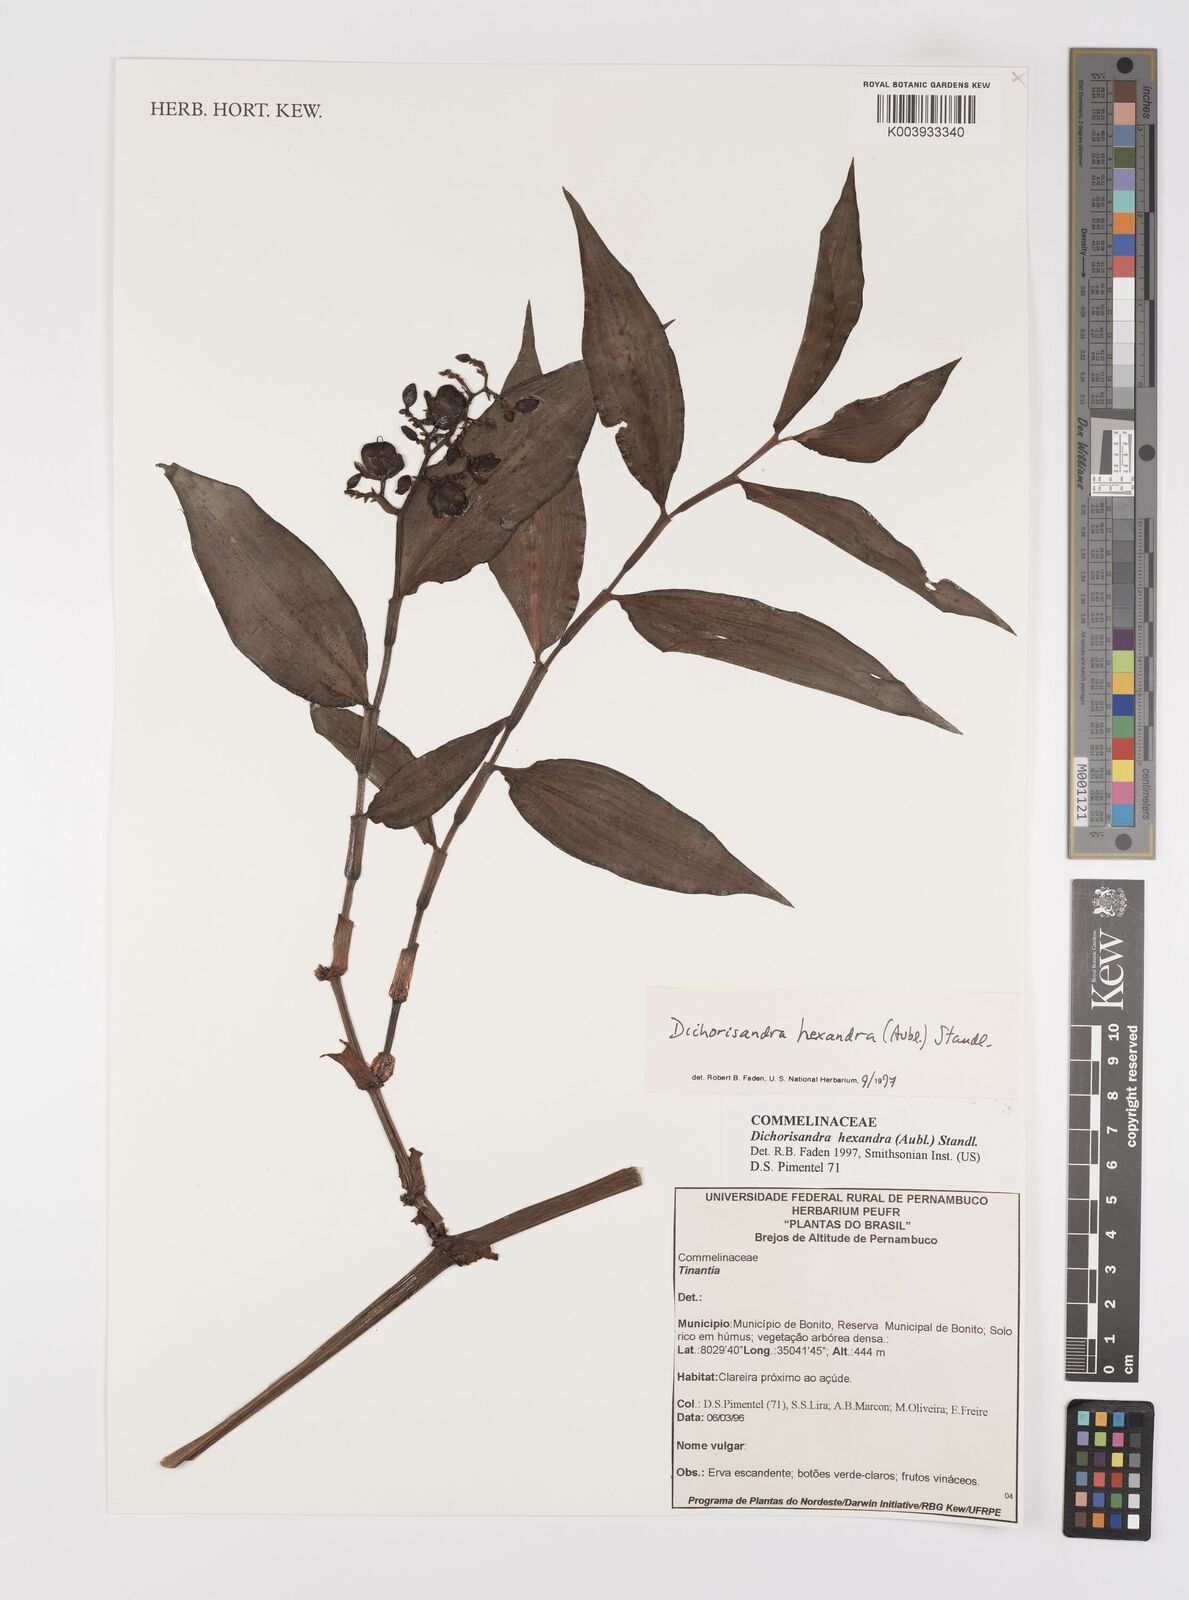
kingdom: Plantae
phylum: Tracheophyta
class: Liliopsida
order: Commelinales
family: Commelinaceae
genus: Dichorisandra
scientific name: Dichorisandra
